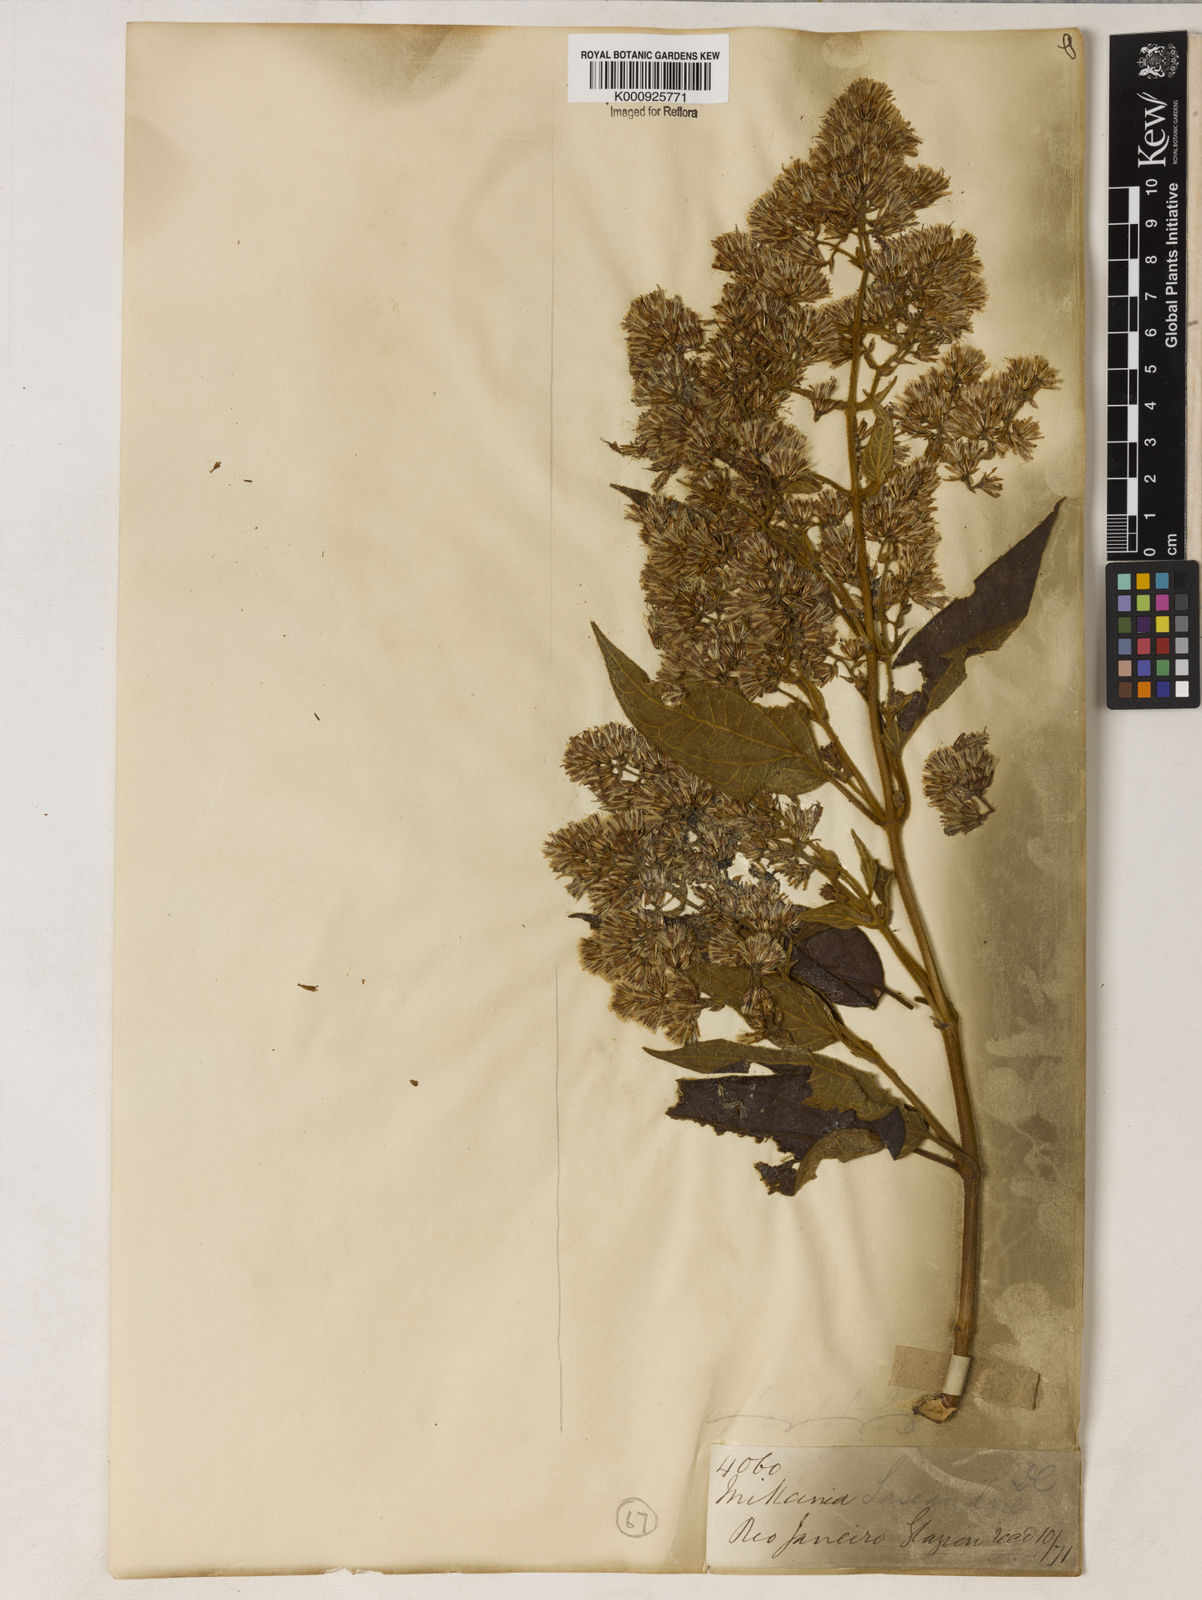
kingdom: Plantae
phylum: Tracheophyta
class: Magnoliopsida
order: Asterales
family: Asteraceae
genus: Mikania
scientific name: Mikania lasiandrae
